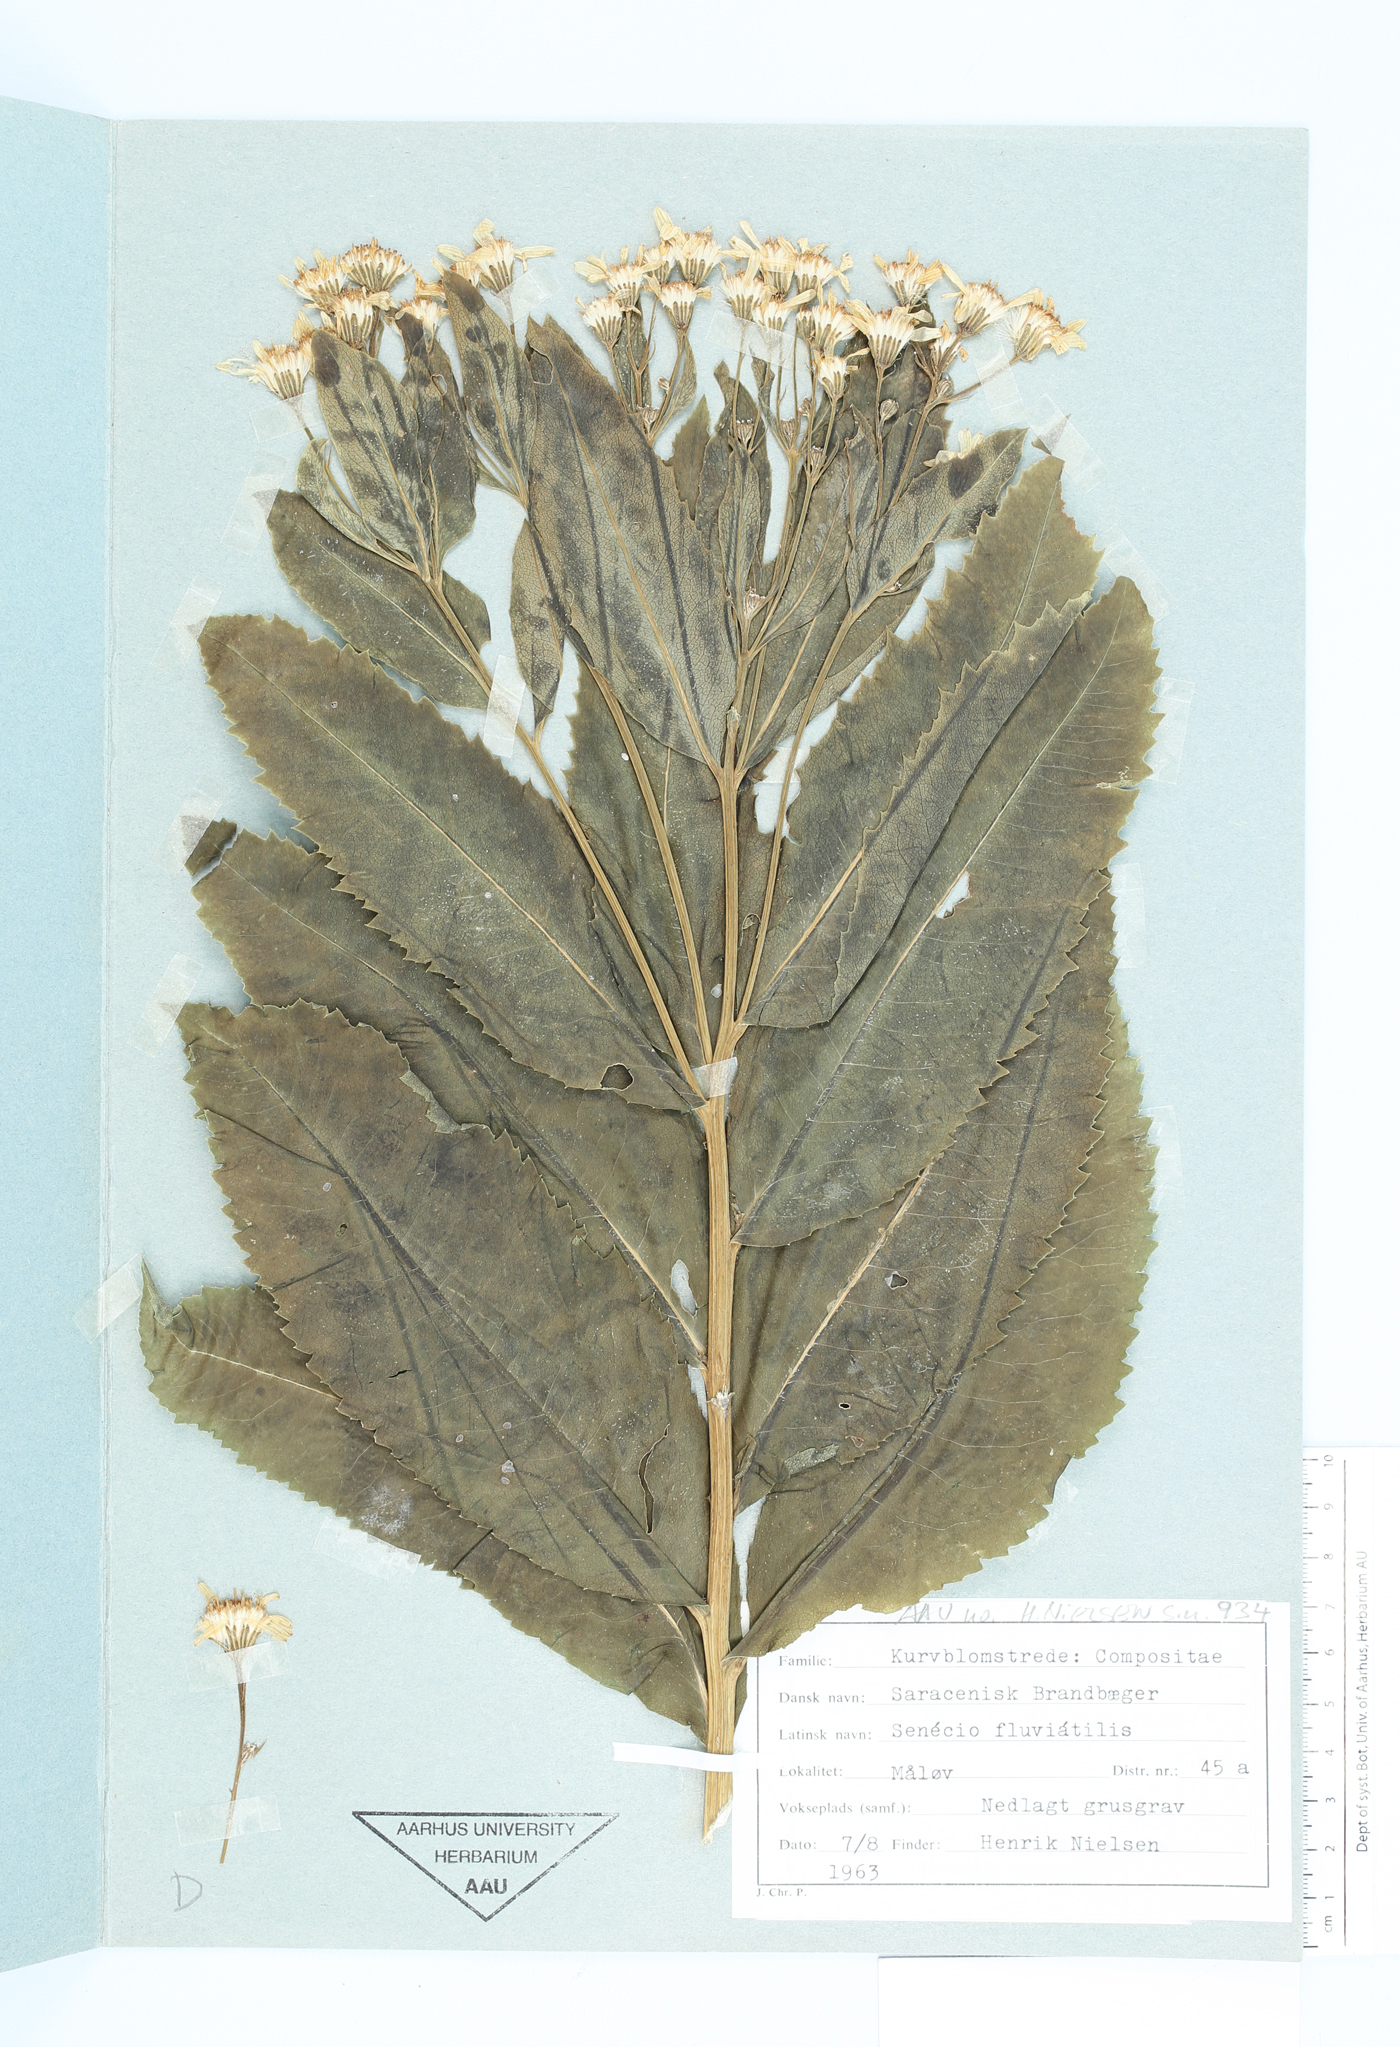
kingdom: Plantae
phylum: Tracheophyta
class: Magnoliopsida
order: Asterales
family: Asteraceae
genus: Senecio
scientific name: Senecio nemorensis
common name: Alpine ragwort
